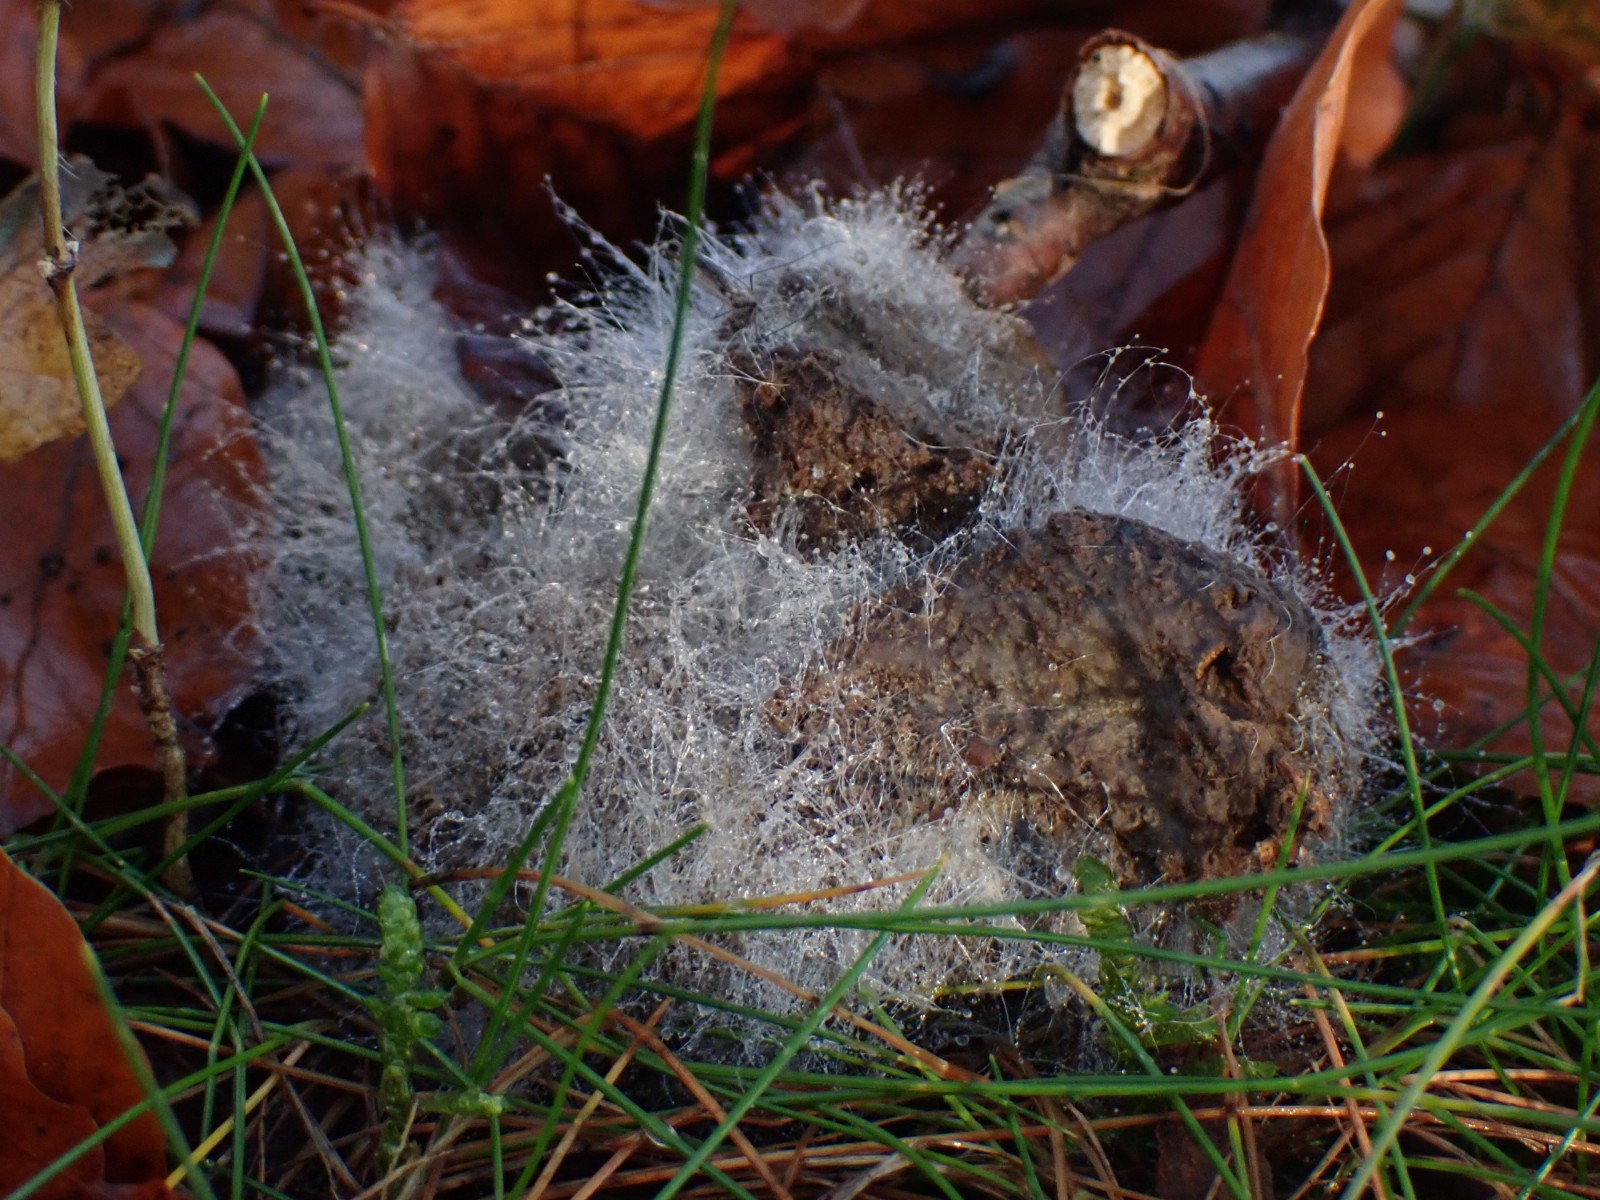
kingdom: Fungi
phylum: Mucoromycota
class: Mucoromycetes
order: Mucorales
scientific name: Mucorales
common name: mugordenen
